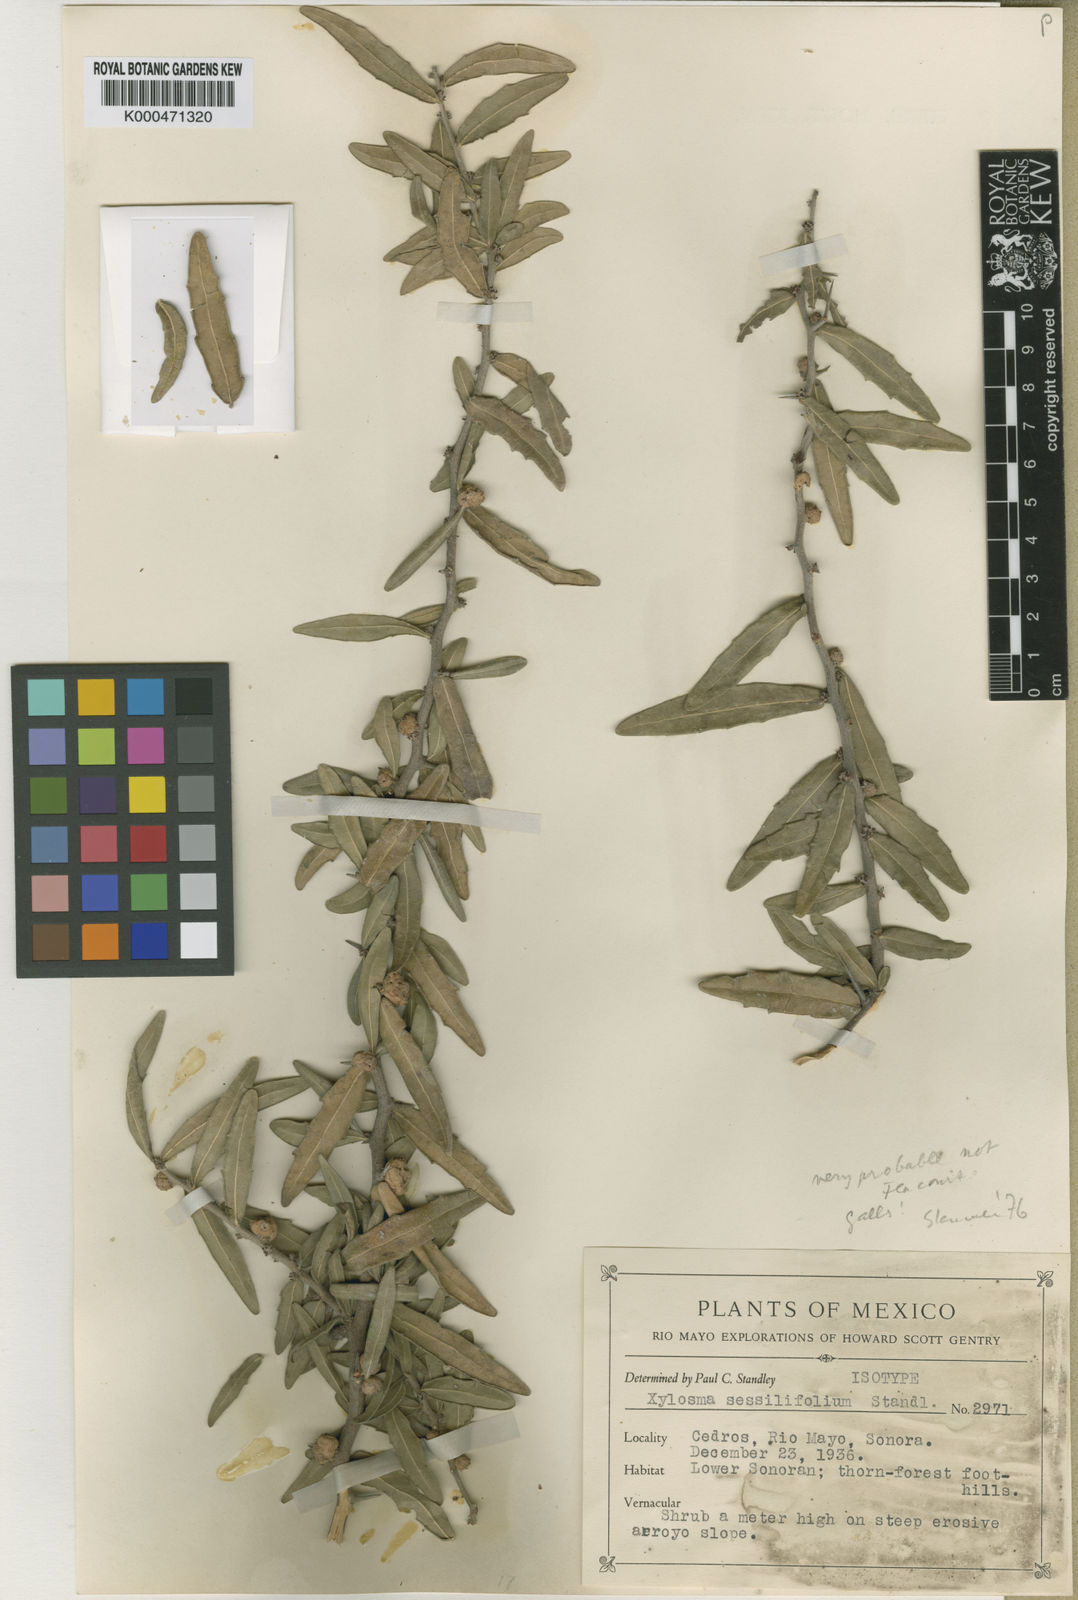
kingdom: Plantae
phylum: Tracheophyta
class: Magnoliopsida
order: Malpighiales
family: Salicaceae
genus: Xylosma
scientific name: Xylosma
